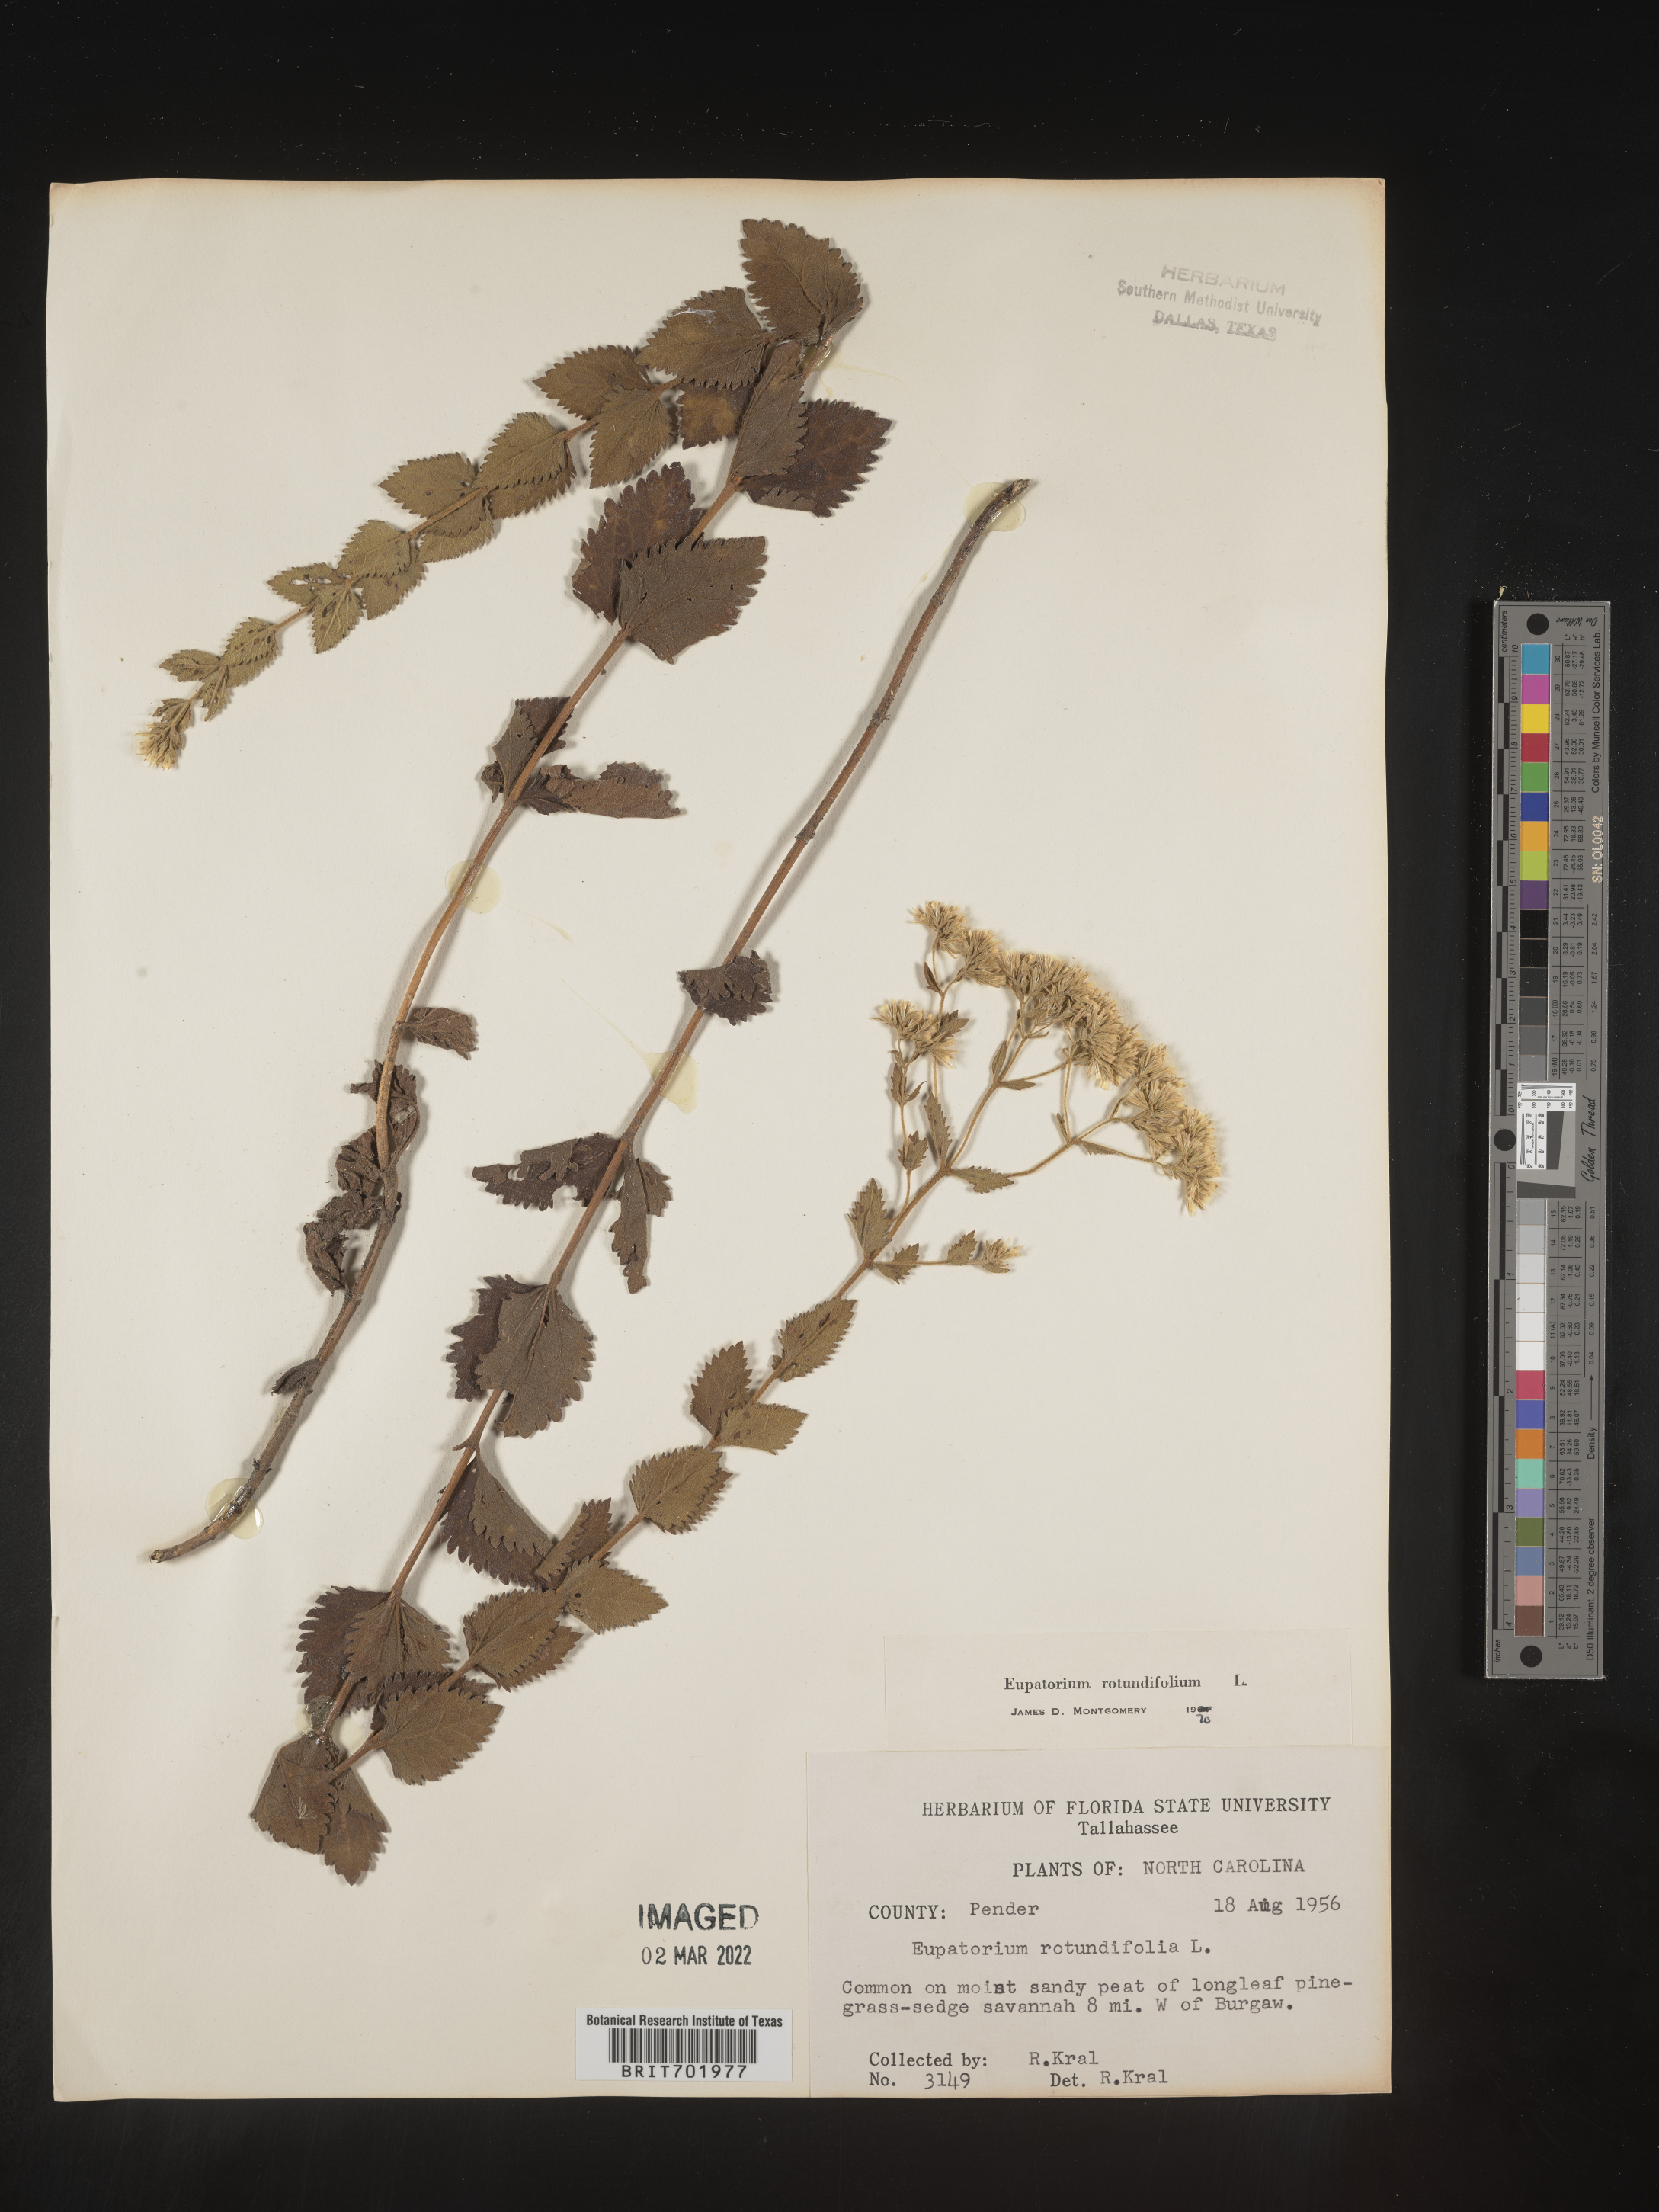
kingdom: Plantae
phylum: Tracheophyta
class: Magnoliopsida
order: Asterales
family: Asteraceae
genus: Eupatorium
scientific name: Eupatorium rotundifolium
